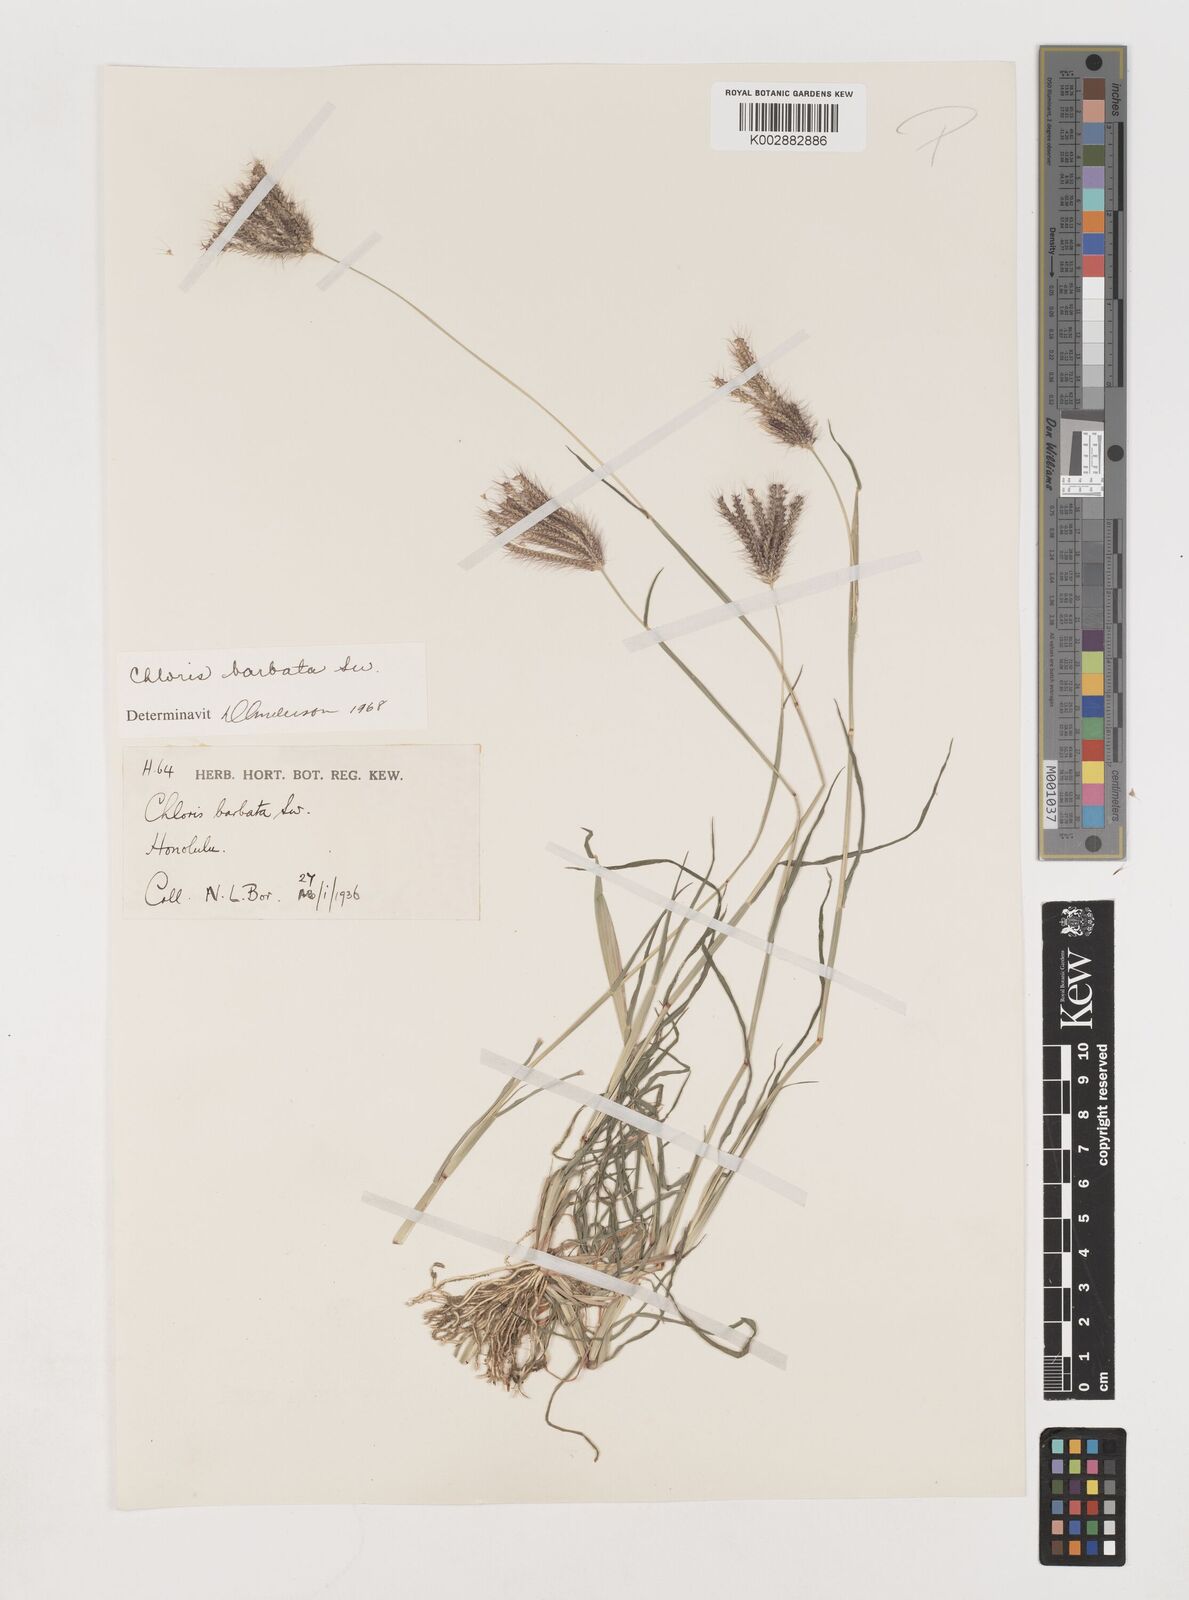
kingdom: Plantae
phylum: Tracheophyta
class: Liliopsida
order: Poales
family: Poaceae
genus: Chloris
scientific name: Chloris barbata
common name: Swollen fingergrass
